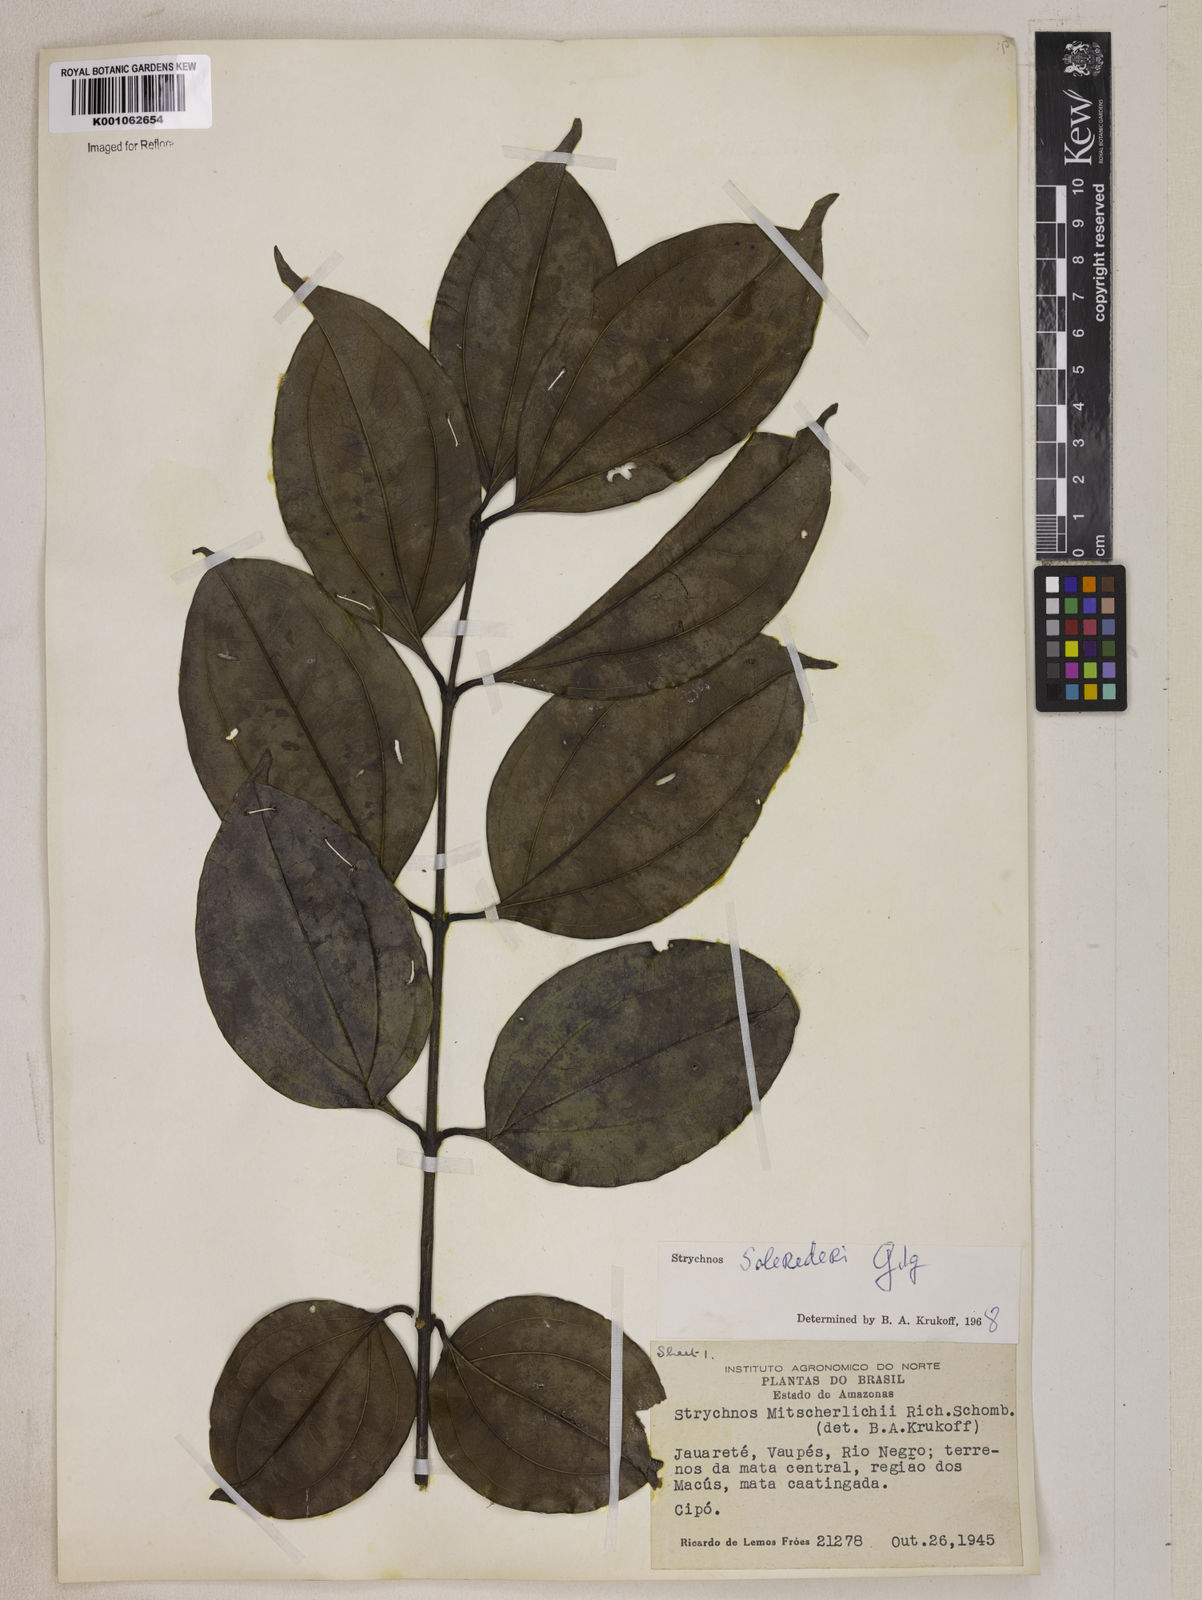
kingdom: Plantae
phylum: Tracheophyta
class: Magnoliopsida
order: Gentianales
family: Loganiaceae
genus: Strychnos
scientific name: Strychnos solerederi
